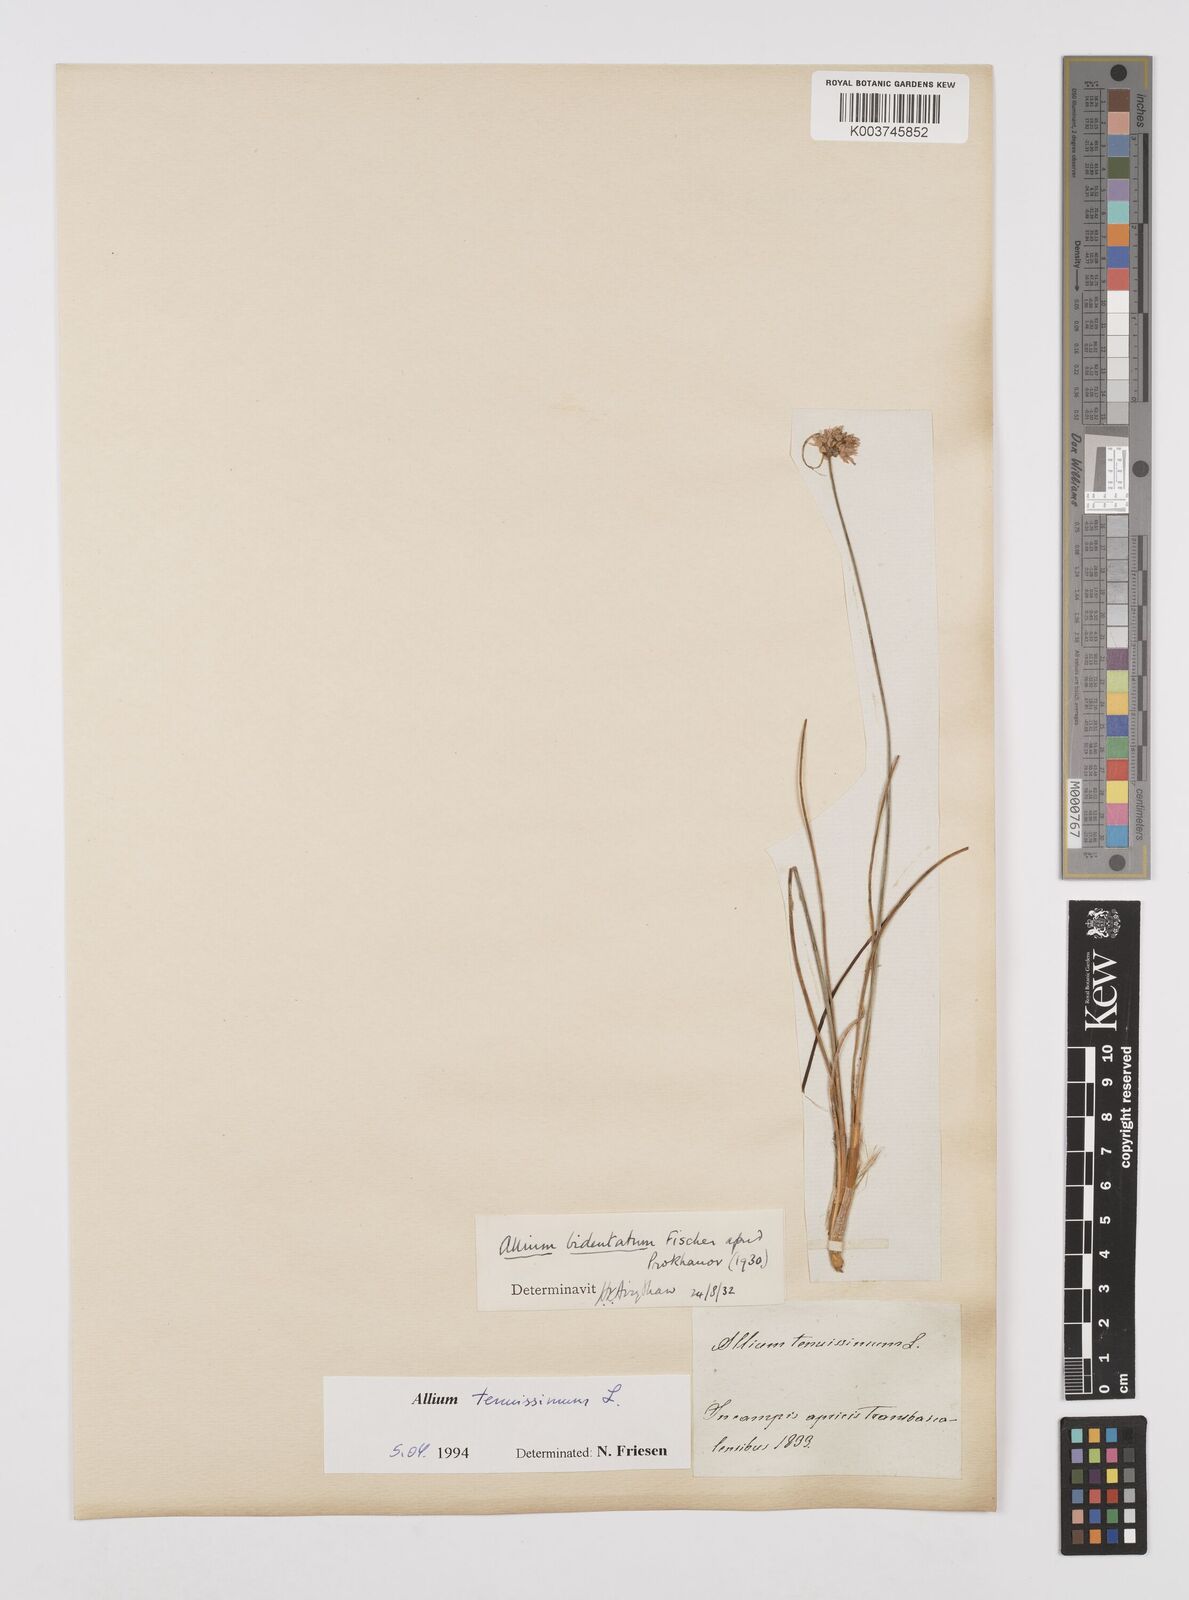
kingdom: Plantae
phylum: Tracheophyta
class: Liliopsida
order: Asparagales
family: Amaryllidaceae
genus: Allium
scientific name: Allium tenuissimum
